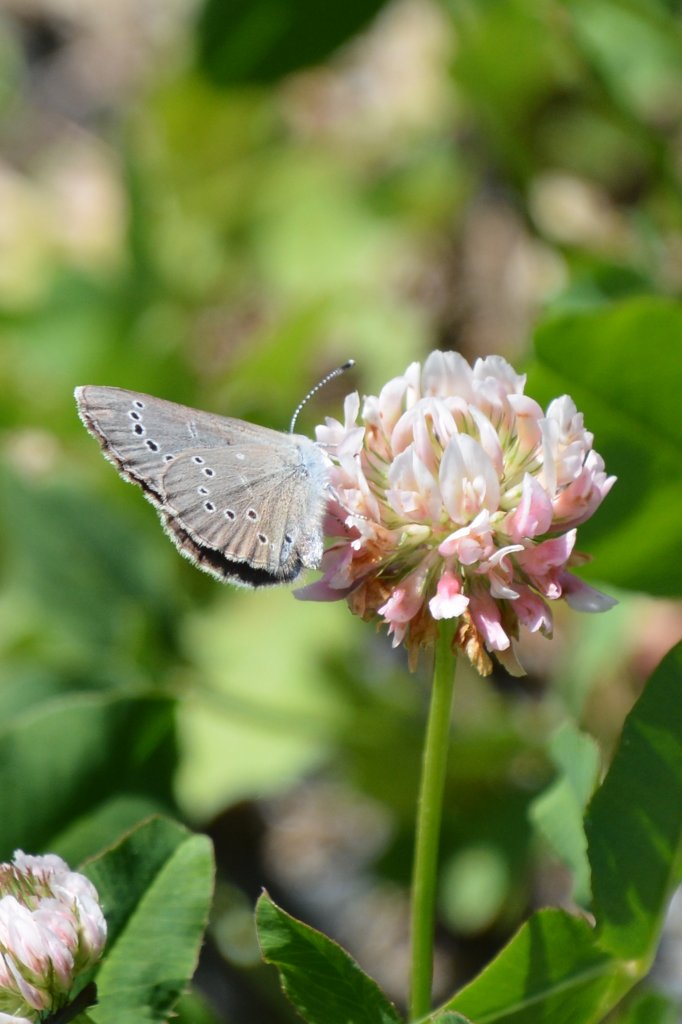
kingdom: Animalia
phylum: Arthropoda
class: Insecta
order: Lepidoptera
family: Lycaenidae
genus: Glaucopsyche
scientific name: Glaucopsyche lygdamus
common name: Silvery Blue
